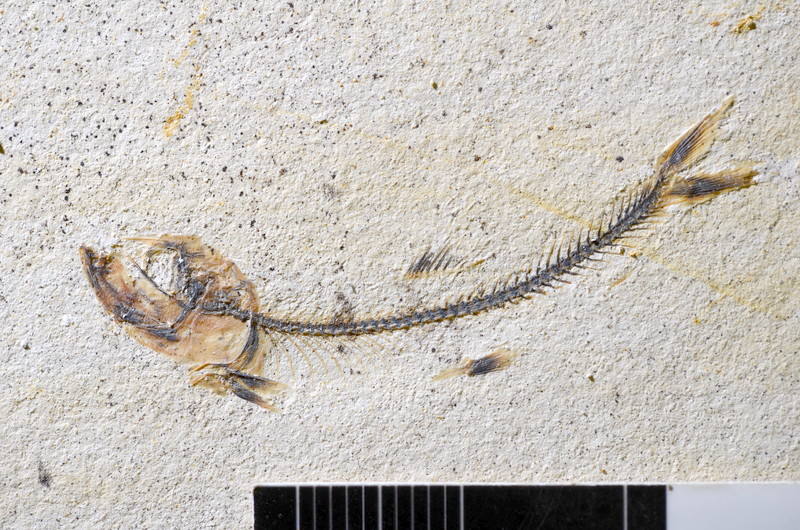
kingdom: Animalia
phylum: Chordata
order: Salmoniformes
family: Orthogonikleithridae
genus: Orthogonikleithrus
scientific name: Orthogonikleithrus hoelli
